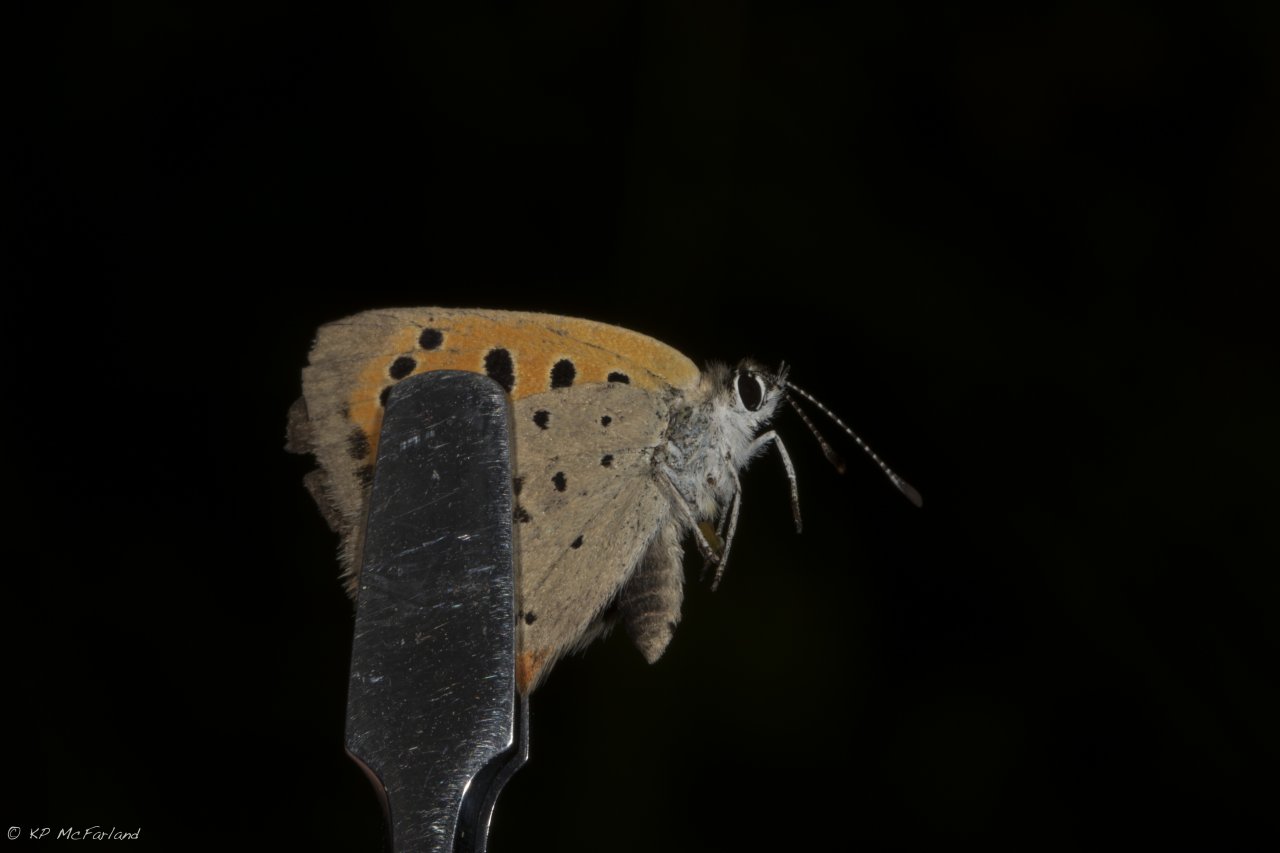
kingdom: Animalia
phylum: Arthropoda
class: Insecta
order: Lepidoptera
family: Lycaenidae
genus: Lycaena
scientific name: Lycaena phlaeas
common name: American Copper
